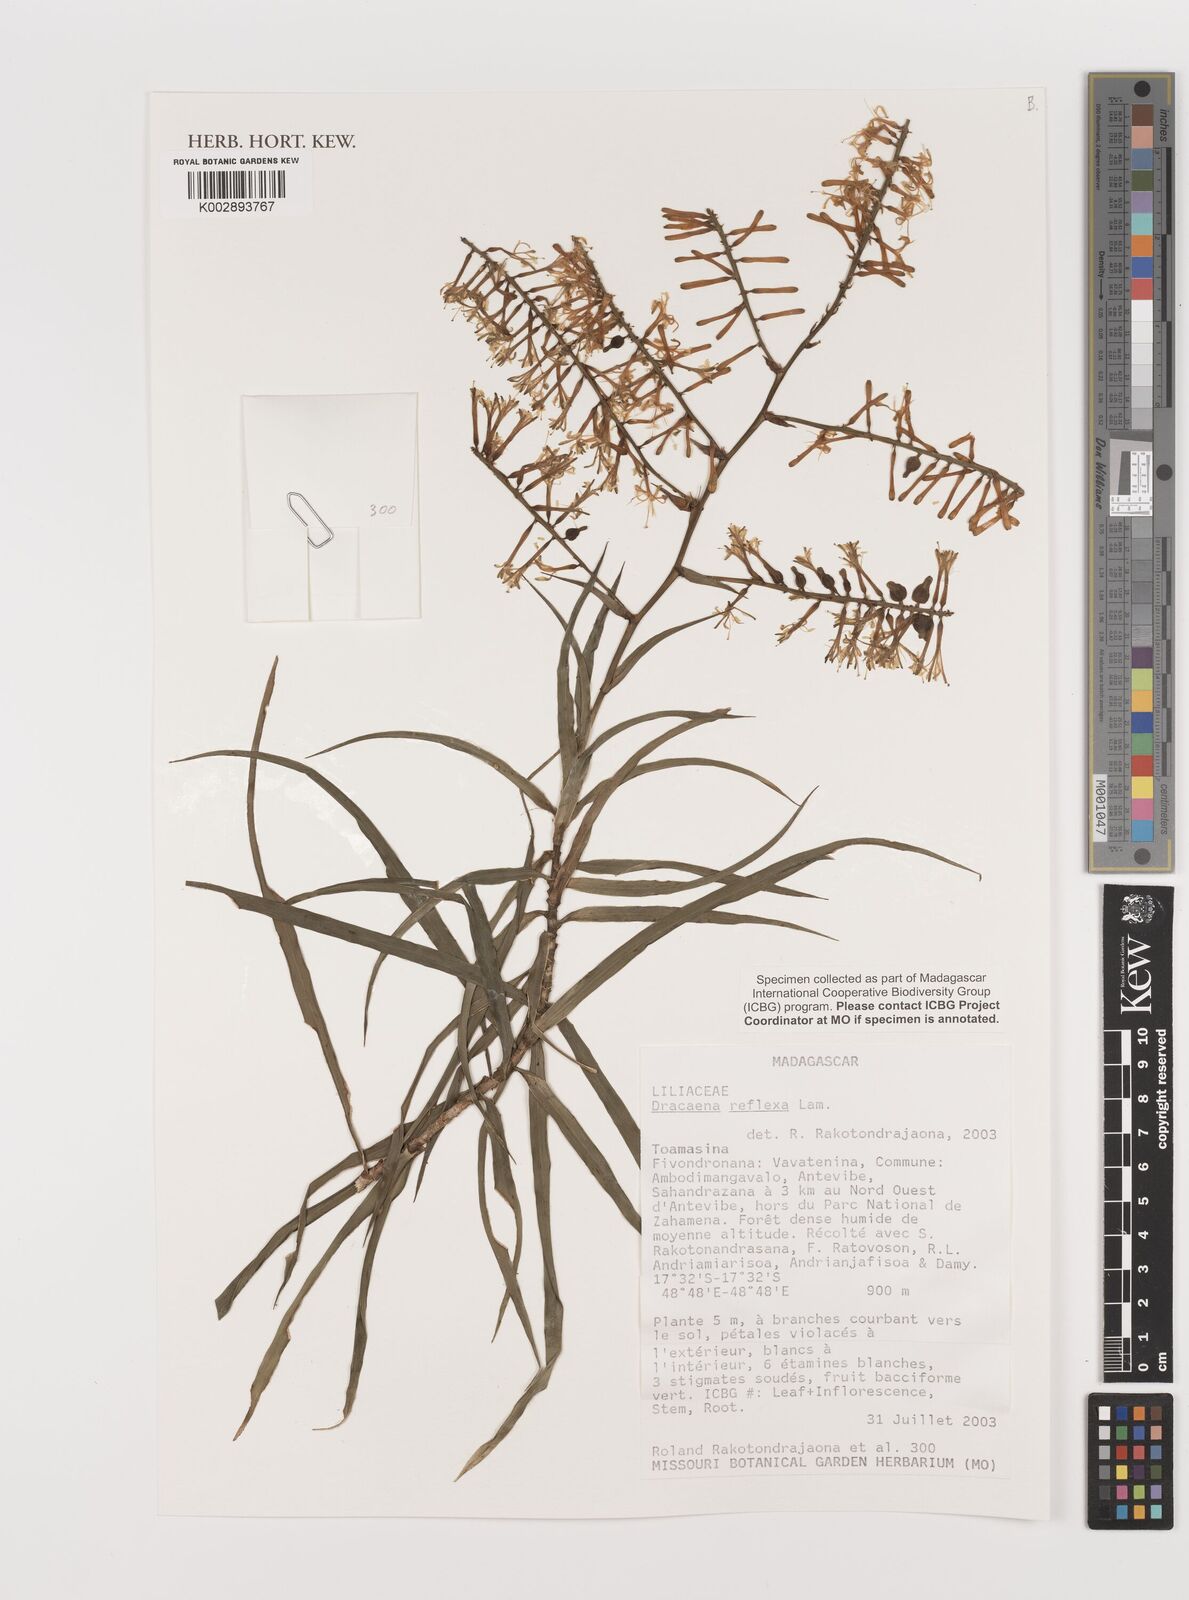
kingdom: Plantae
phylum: Tracheophyta
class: Liliopsida
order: Asparagales
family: Asparagaceae
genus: Dracaena
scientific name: Dracaena reflexa
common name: Song-of-india
